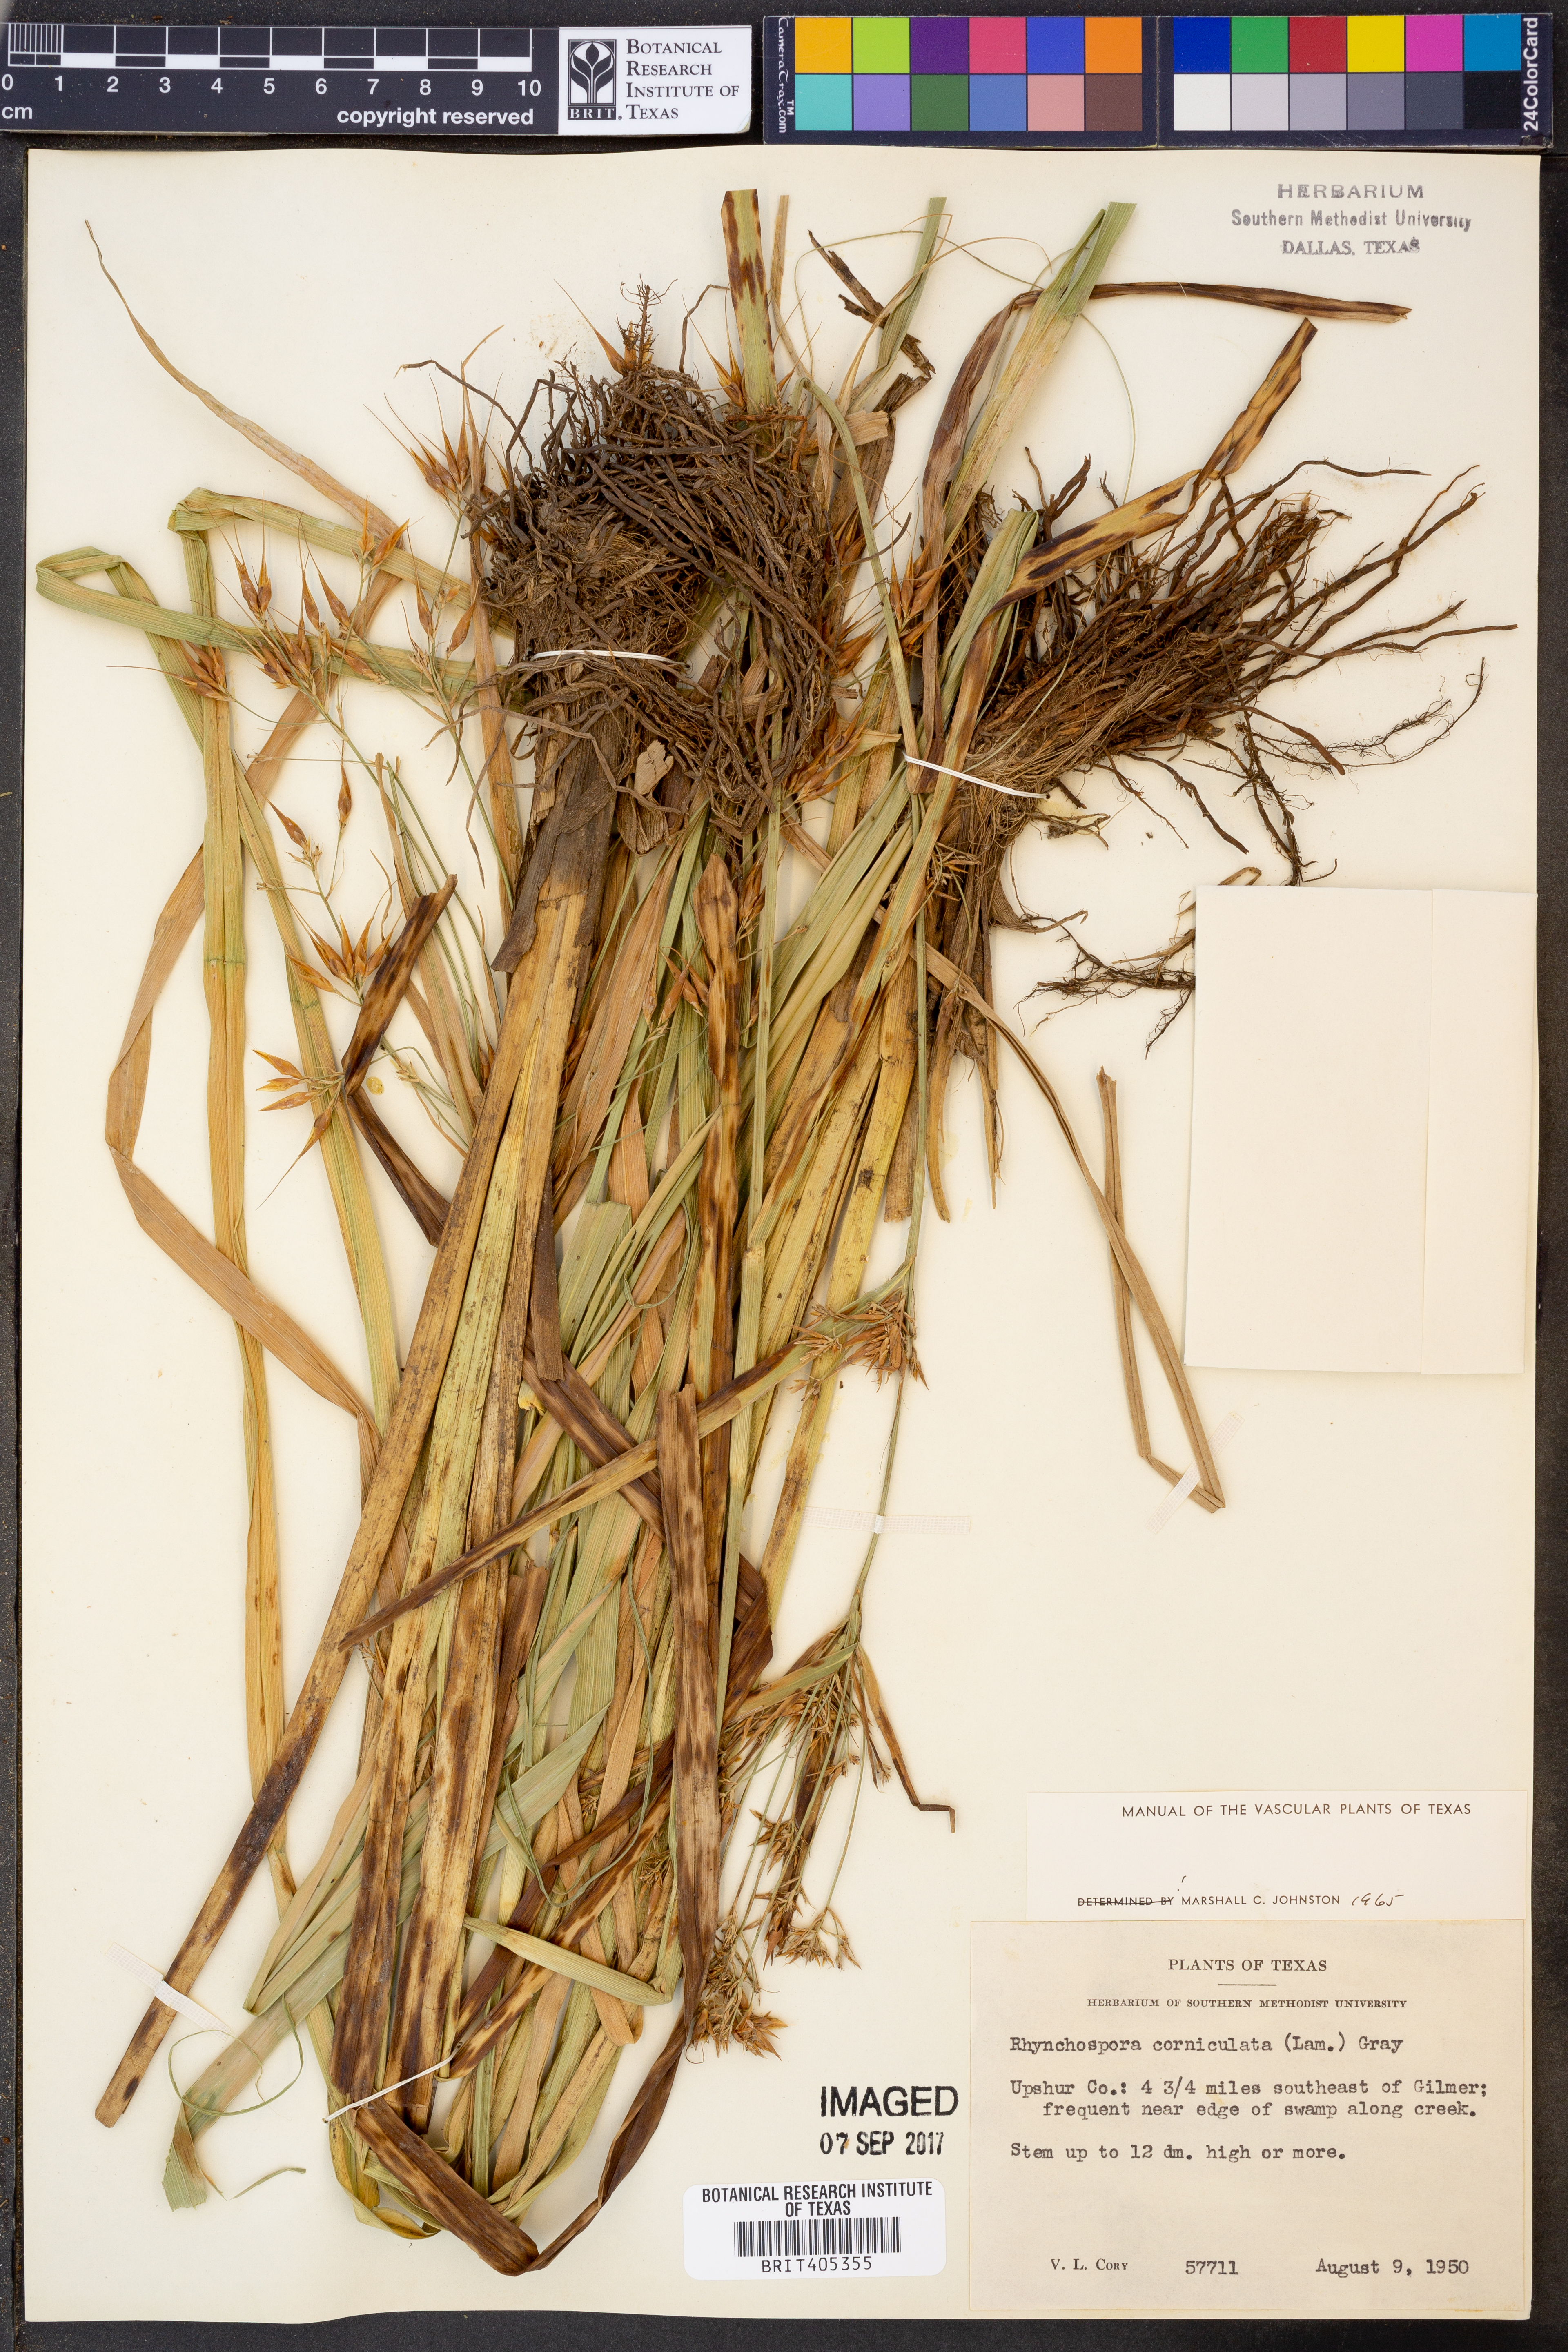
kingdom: Plantae
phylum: Tracheophyta
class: Liliopsida
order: Poales
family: Cyperaceae
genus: Rhynchospora
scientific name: Rhynchospora corniculata
